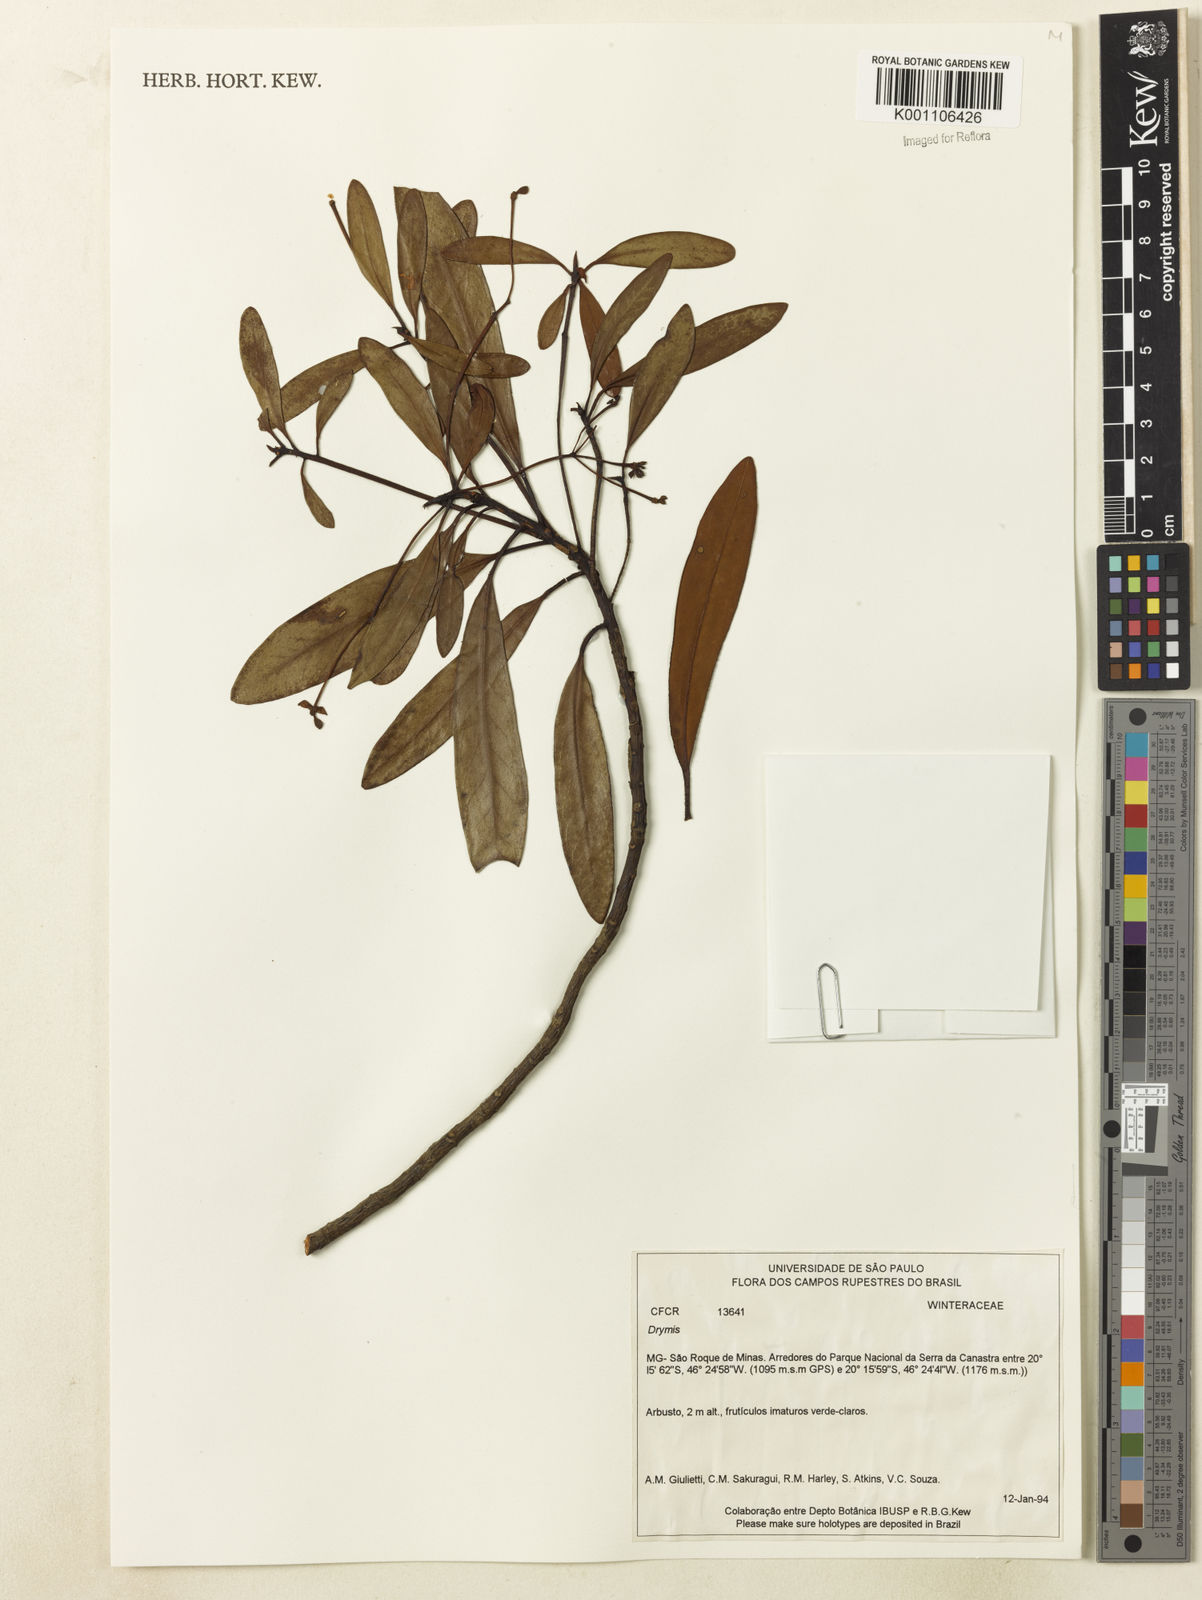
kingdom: Plantae
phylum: Tracheophyta
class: Magnoliopsida
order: Canellales
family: Winteraceae
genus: Drimys
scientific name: Drimys
